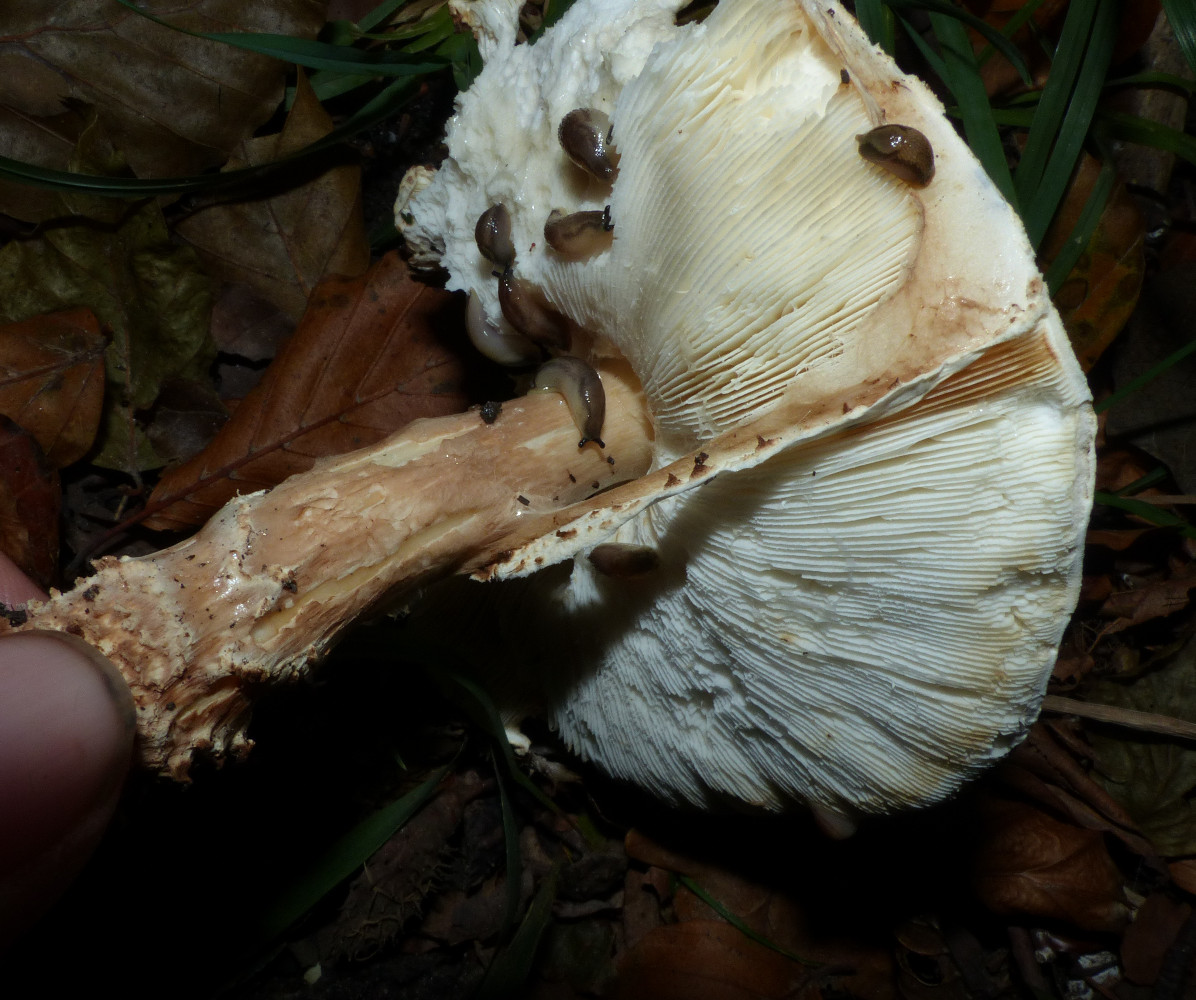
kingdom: Fungi
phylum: Basidiomycota
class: Agaricomycetes
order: Agaricales
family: Agaricaceae
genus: Echinoderma
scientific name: Echinoderma
